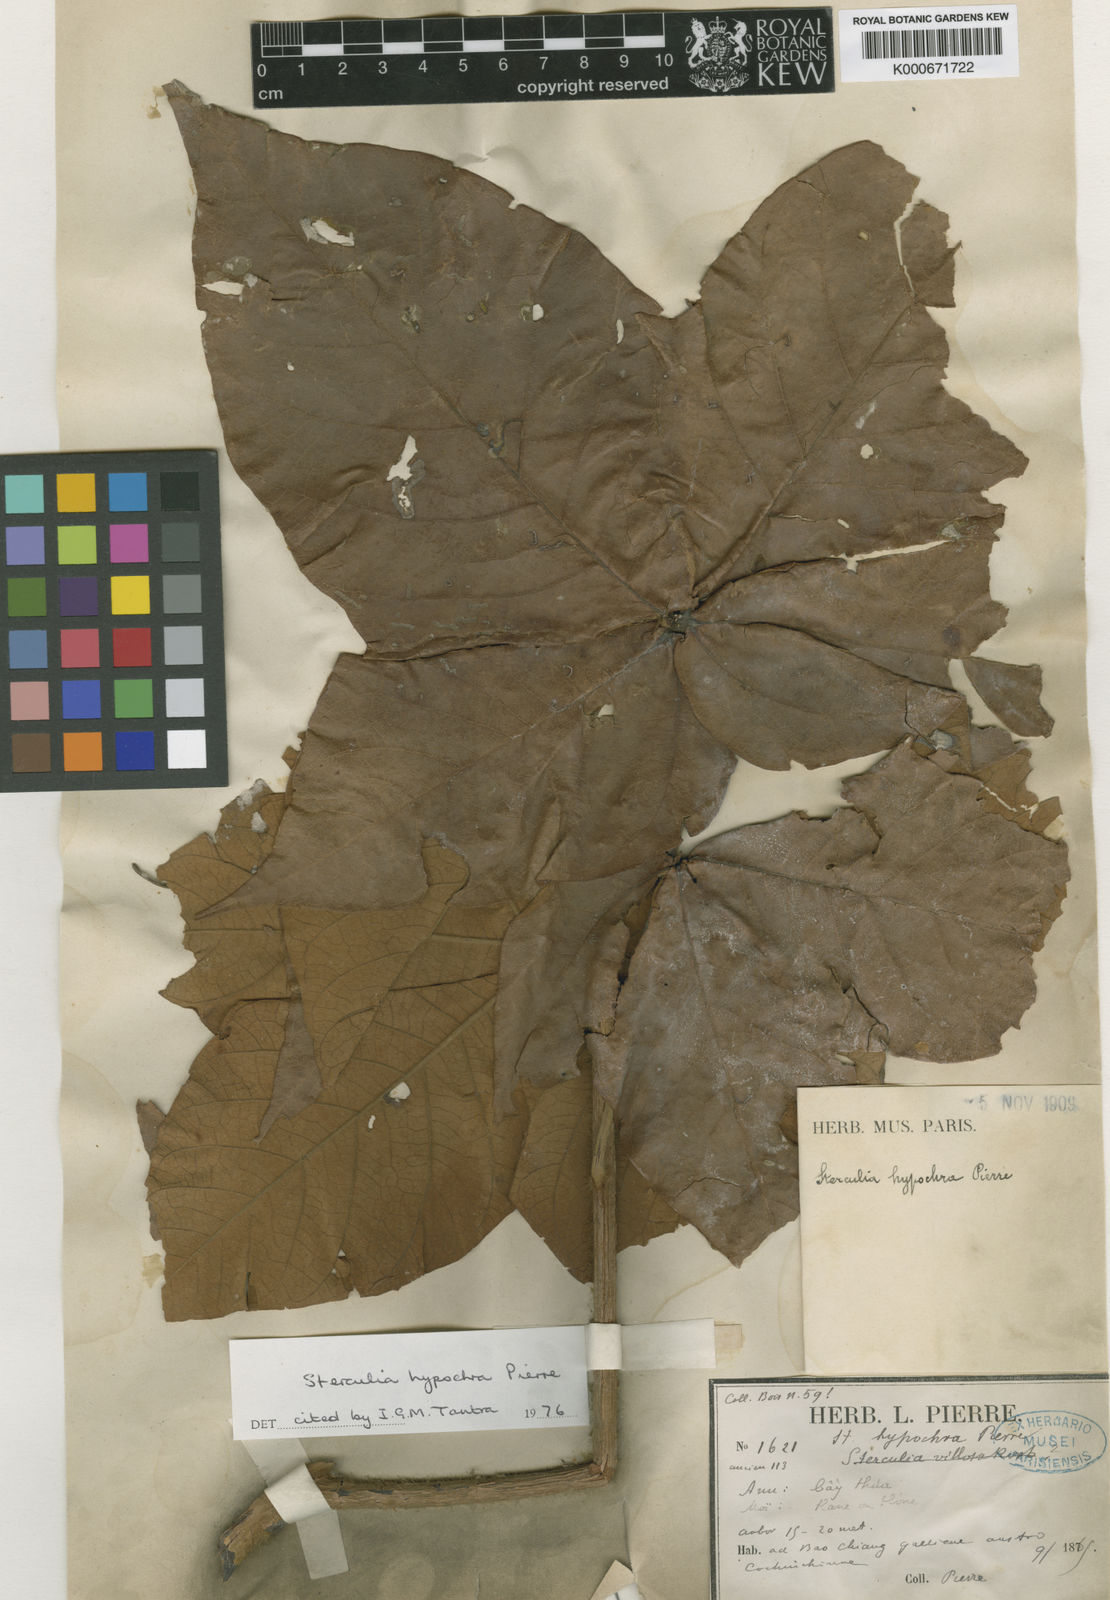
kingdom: Plantae
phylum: Tracheophyta
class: Magnoliopsida
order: Malvales
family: Malvaceae
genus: Sterculia
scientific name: Sterculia hypochroa
